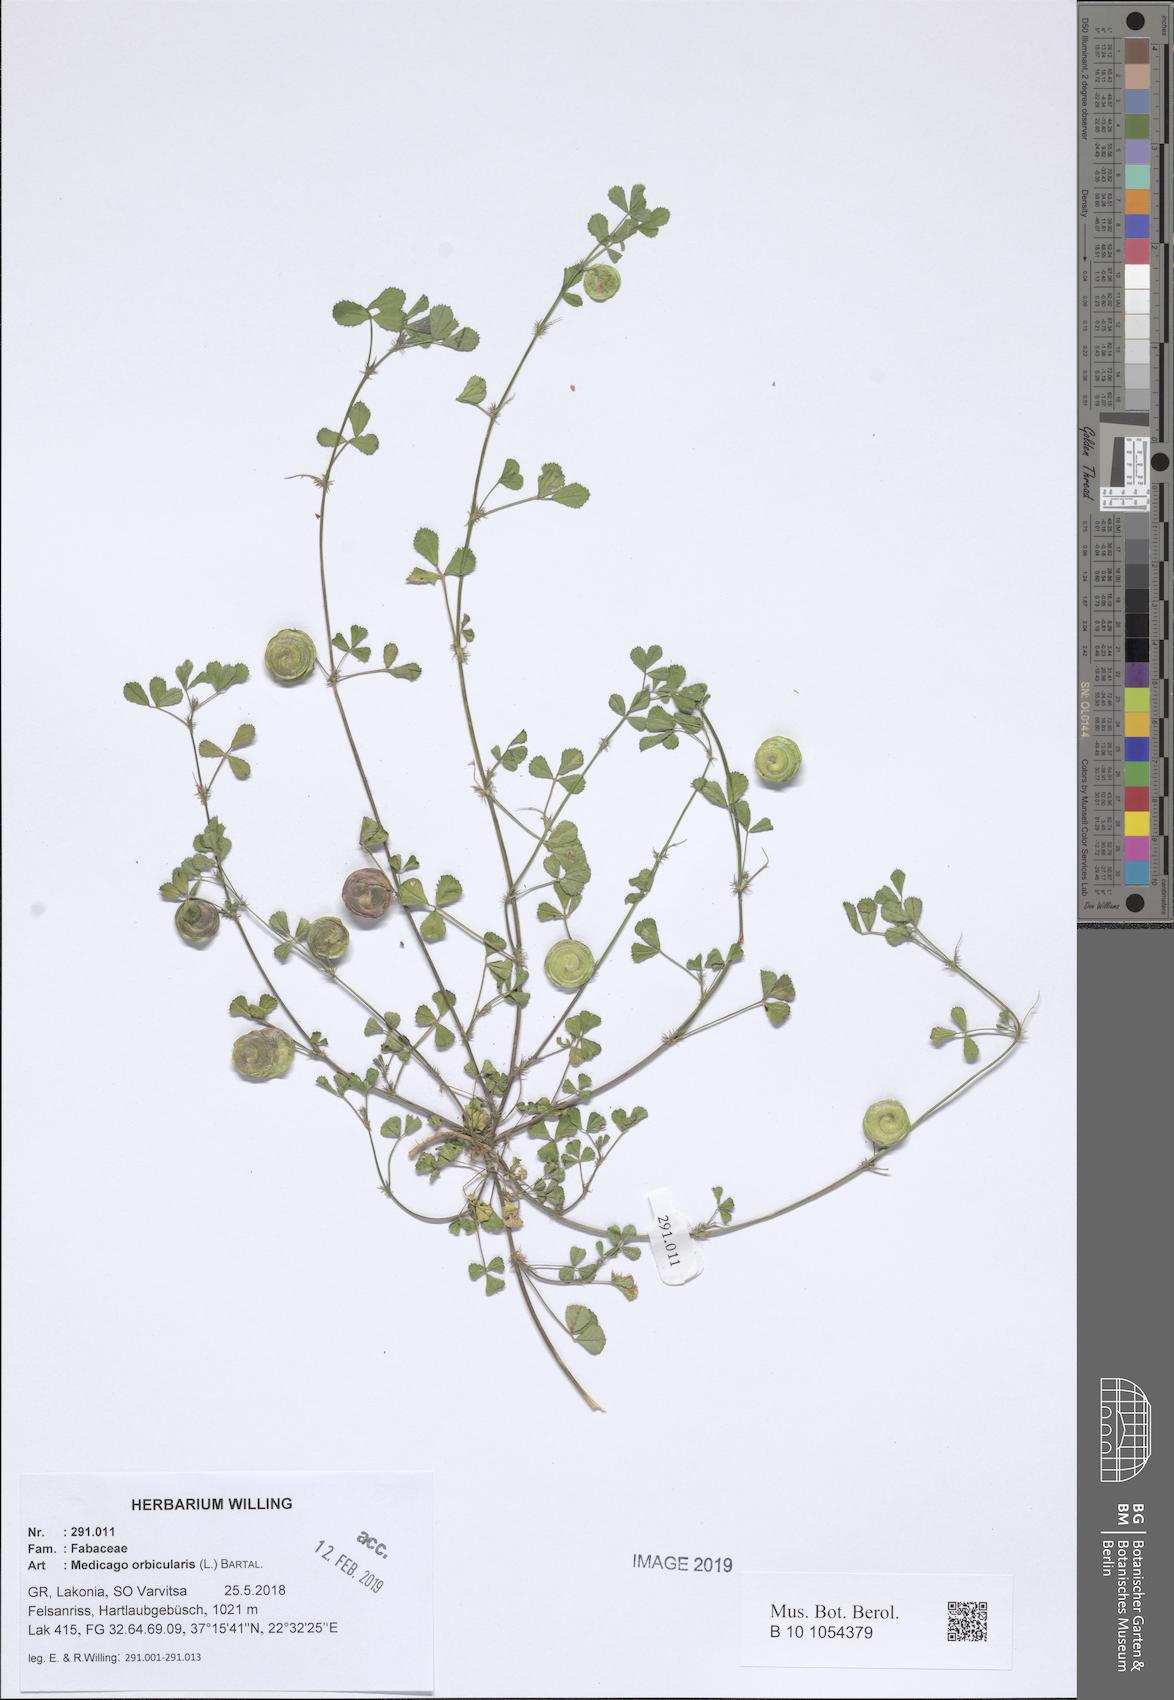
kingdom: Plantae
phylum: Tracheophyta
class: Magnoliopsida
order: Fabales
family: Fabaceae
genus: Medicago
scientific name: Medicago orbicularis
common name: Button medick
